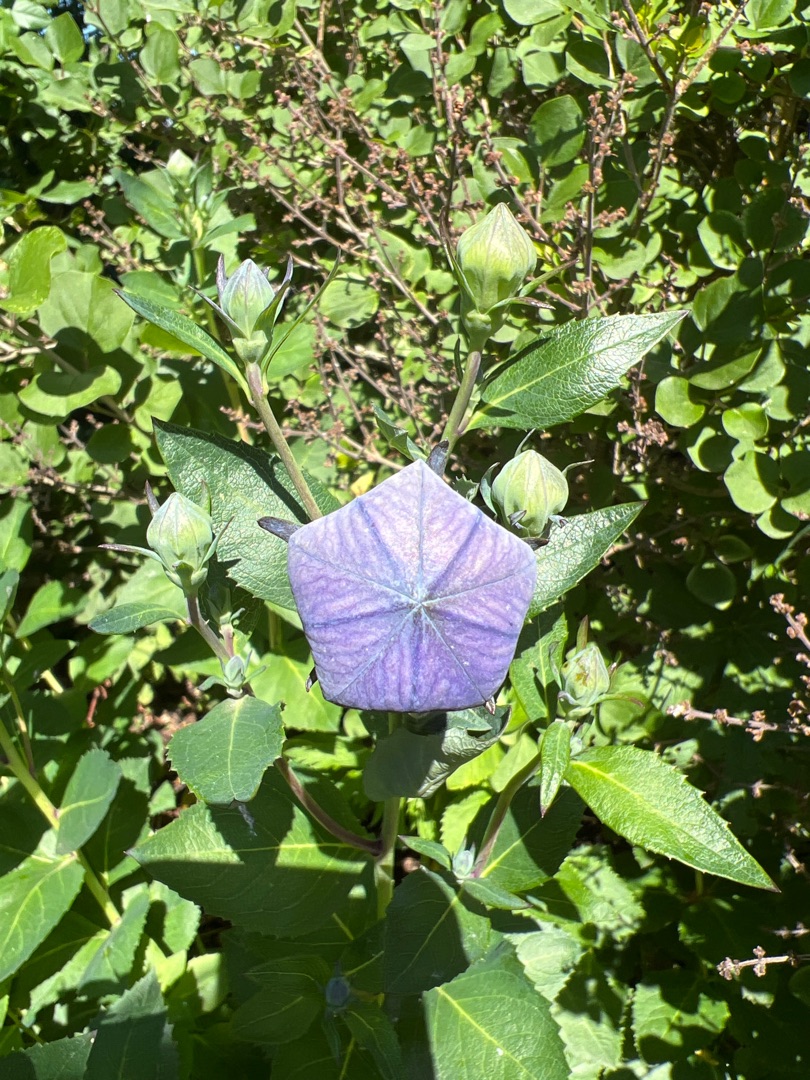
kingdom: Plantae
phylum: Tracheophyta
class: Magnoliopsida
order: Asterales
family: Campanulaceae
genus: Platycodon
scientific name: Platycodon grandiflorus
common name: Ballonklokke
